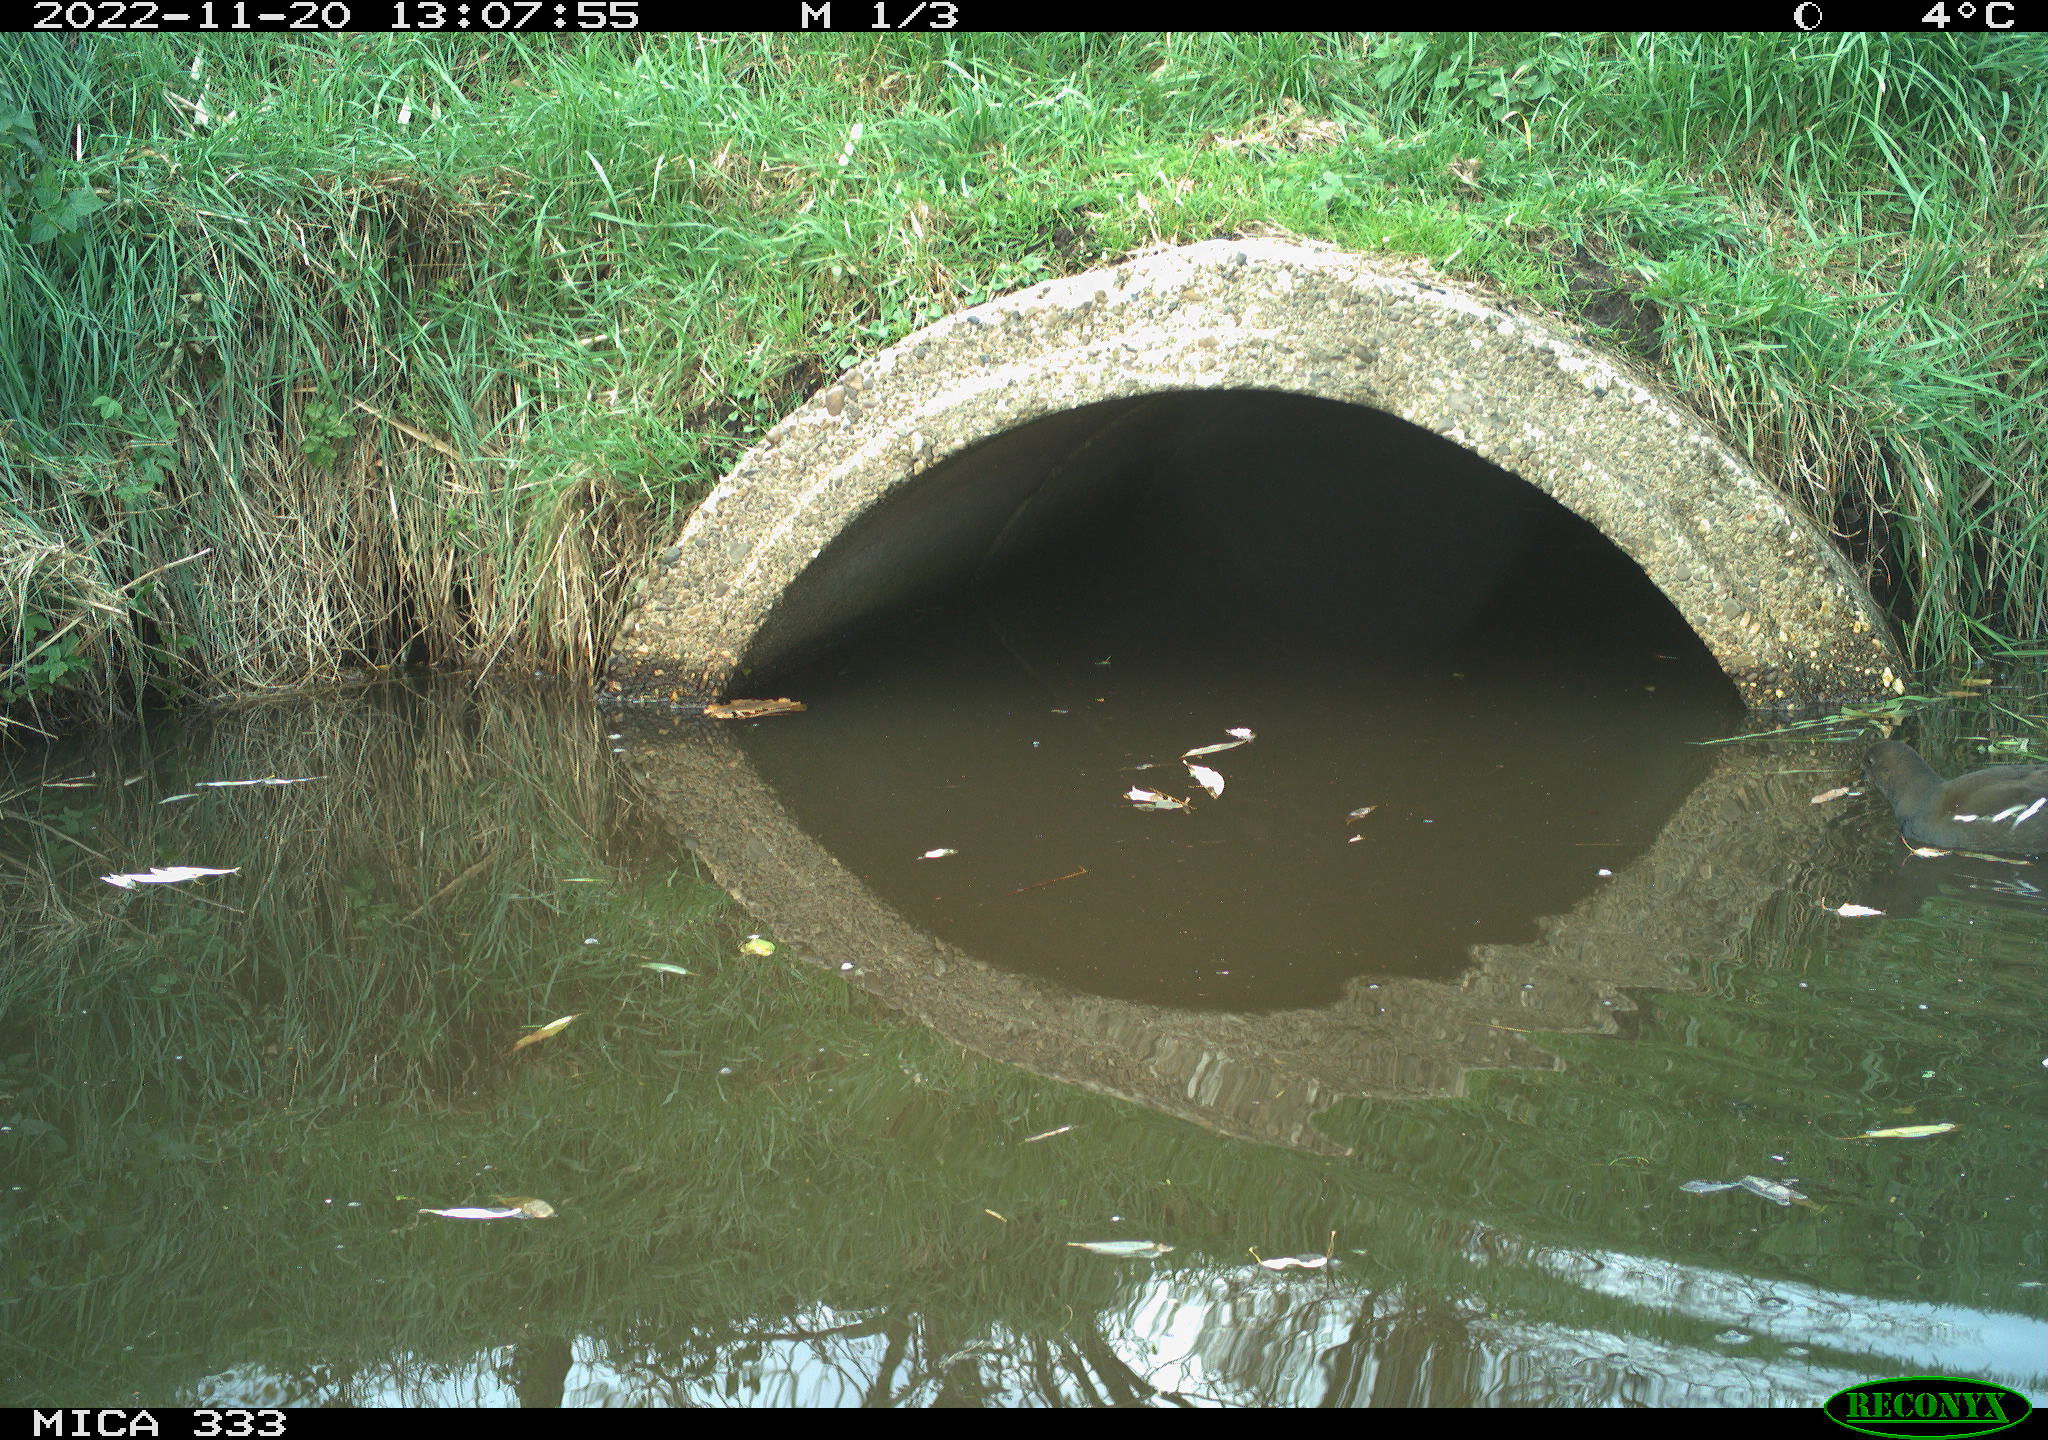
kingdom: Animalia
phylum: Chordata
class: Aves
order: Gruiformes
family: Rallidae
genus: Gallinula
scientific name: Gallinula chloropus
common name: Common moorhen
